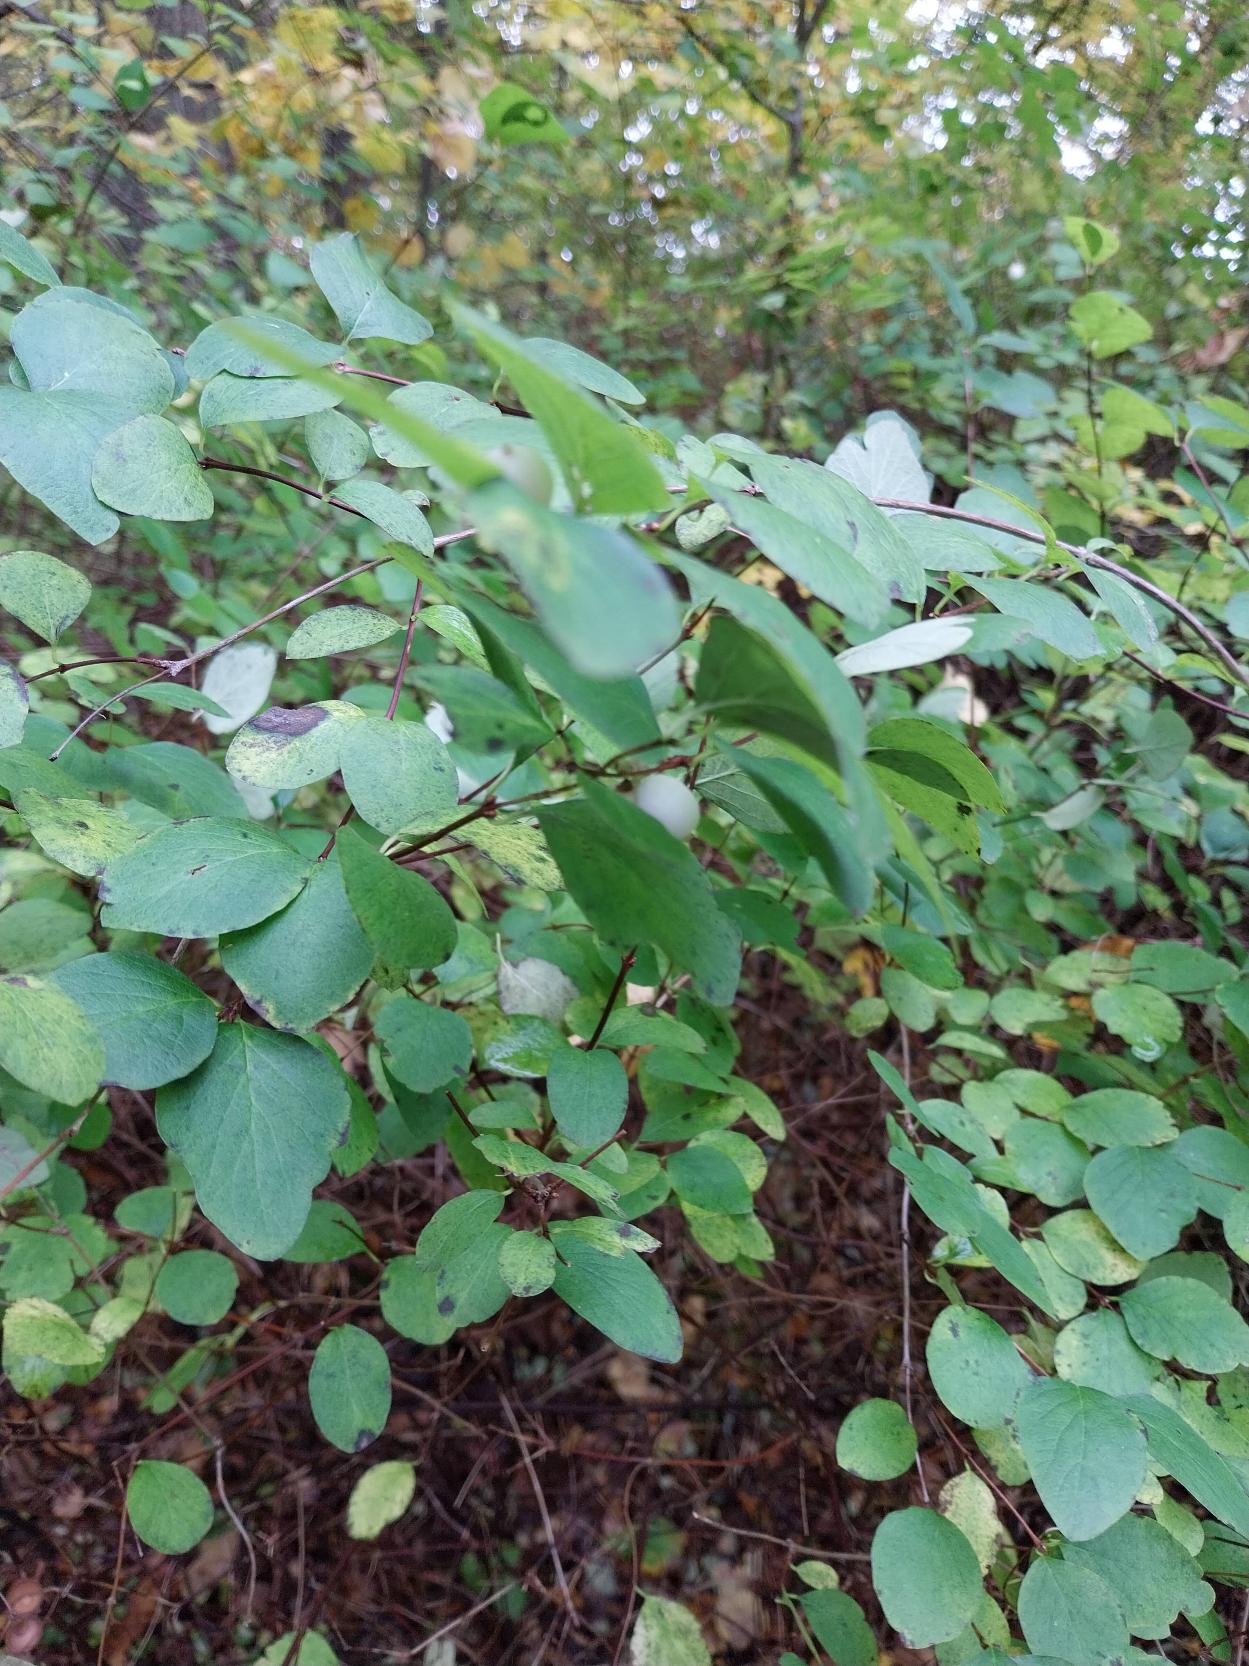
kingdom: Plantae
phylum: Tracheophyta
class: Magnoliopsida
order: Dipsacales
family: Caprifoliaceae
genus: Symphoricarpos
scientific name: Symphoricarpos albus
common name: Almindelig snebær
